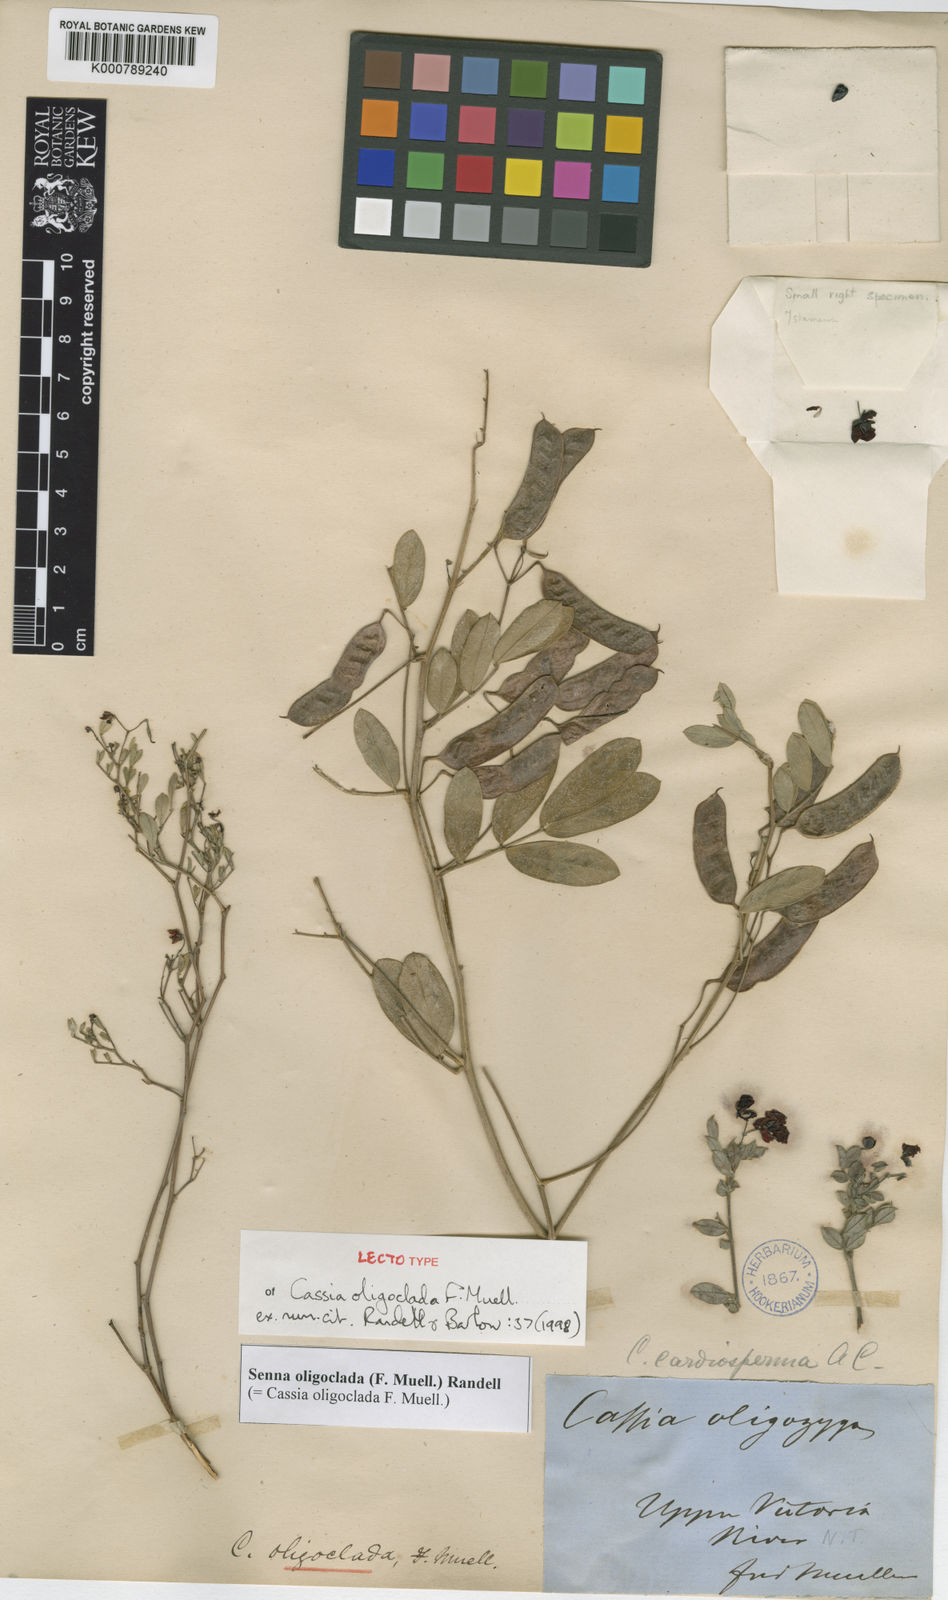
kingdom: Plantae
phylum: Tracheophyta
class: Magnoliopsida
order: Fabales
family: Fabaceae
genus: Senna
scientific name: Senna oligoclada
